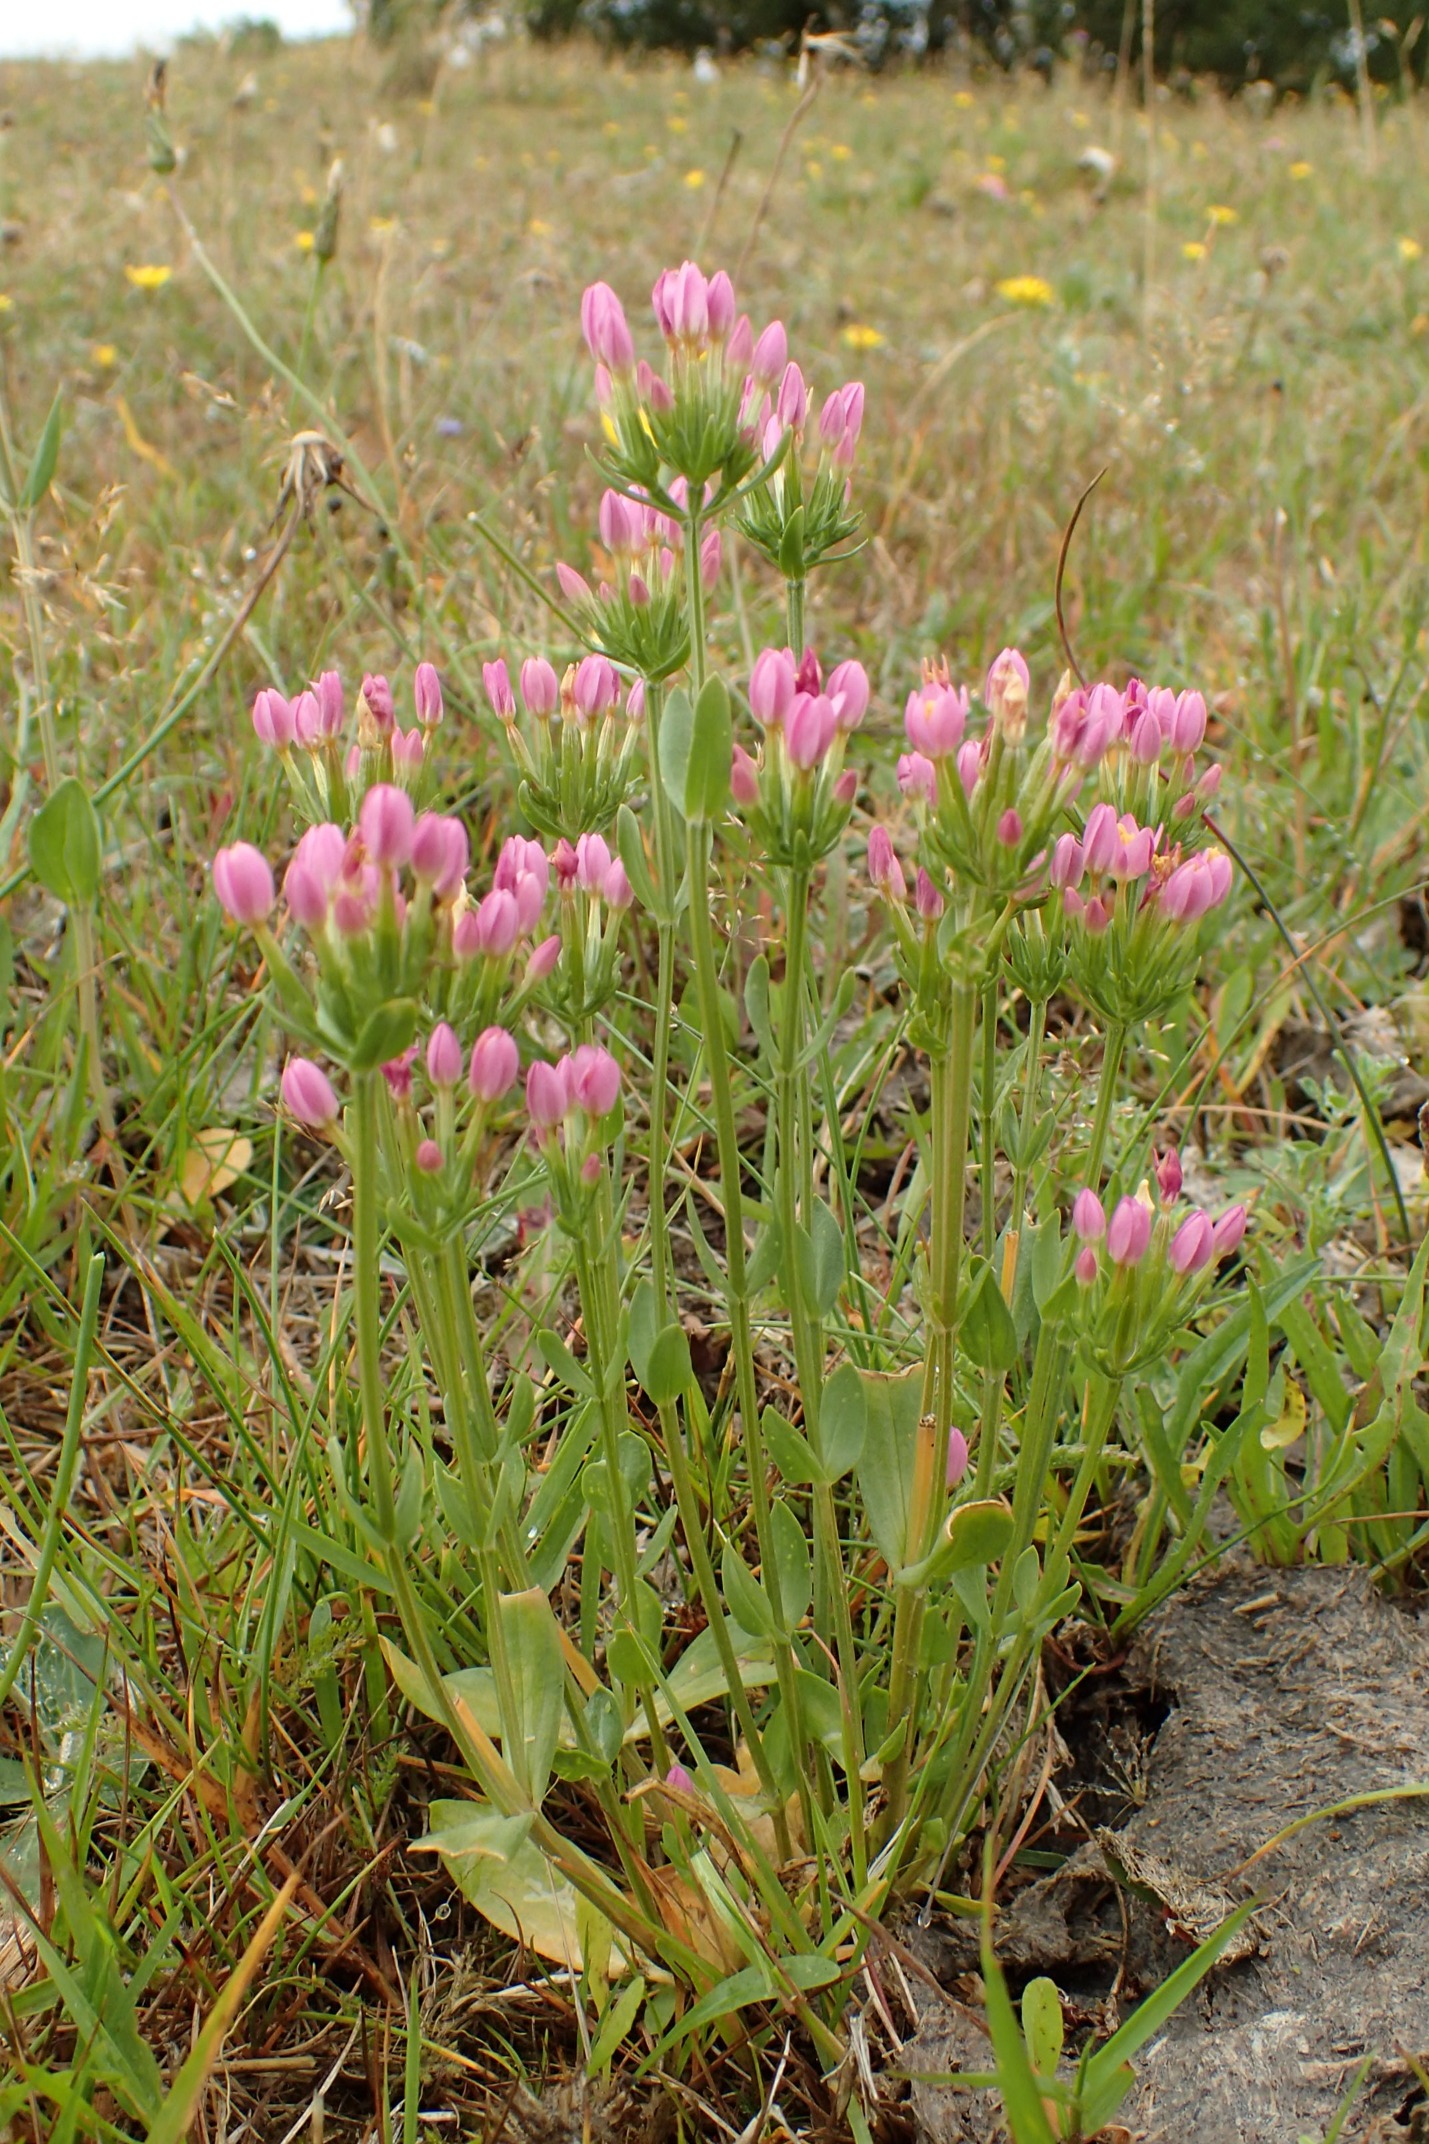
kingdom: Plantae
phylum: Tracheophyta
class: Magnoliopsida
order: Gentianales
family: Gentianaceae
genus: Centaurium
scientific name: Centaurium erythraea
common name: Mark-tusindgylden
